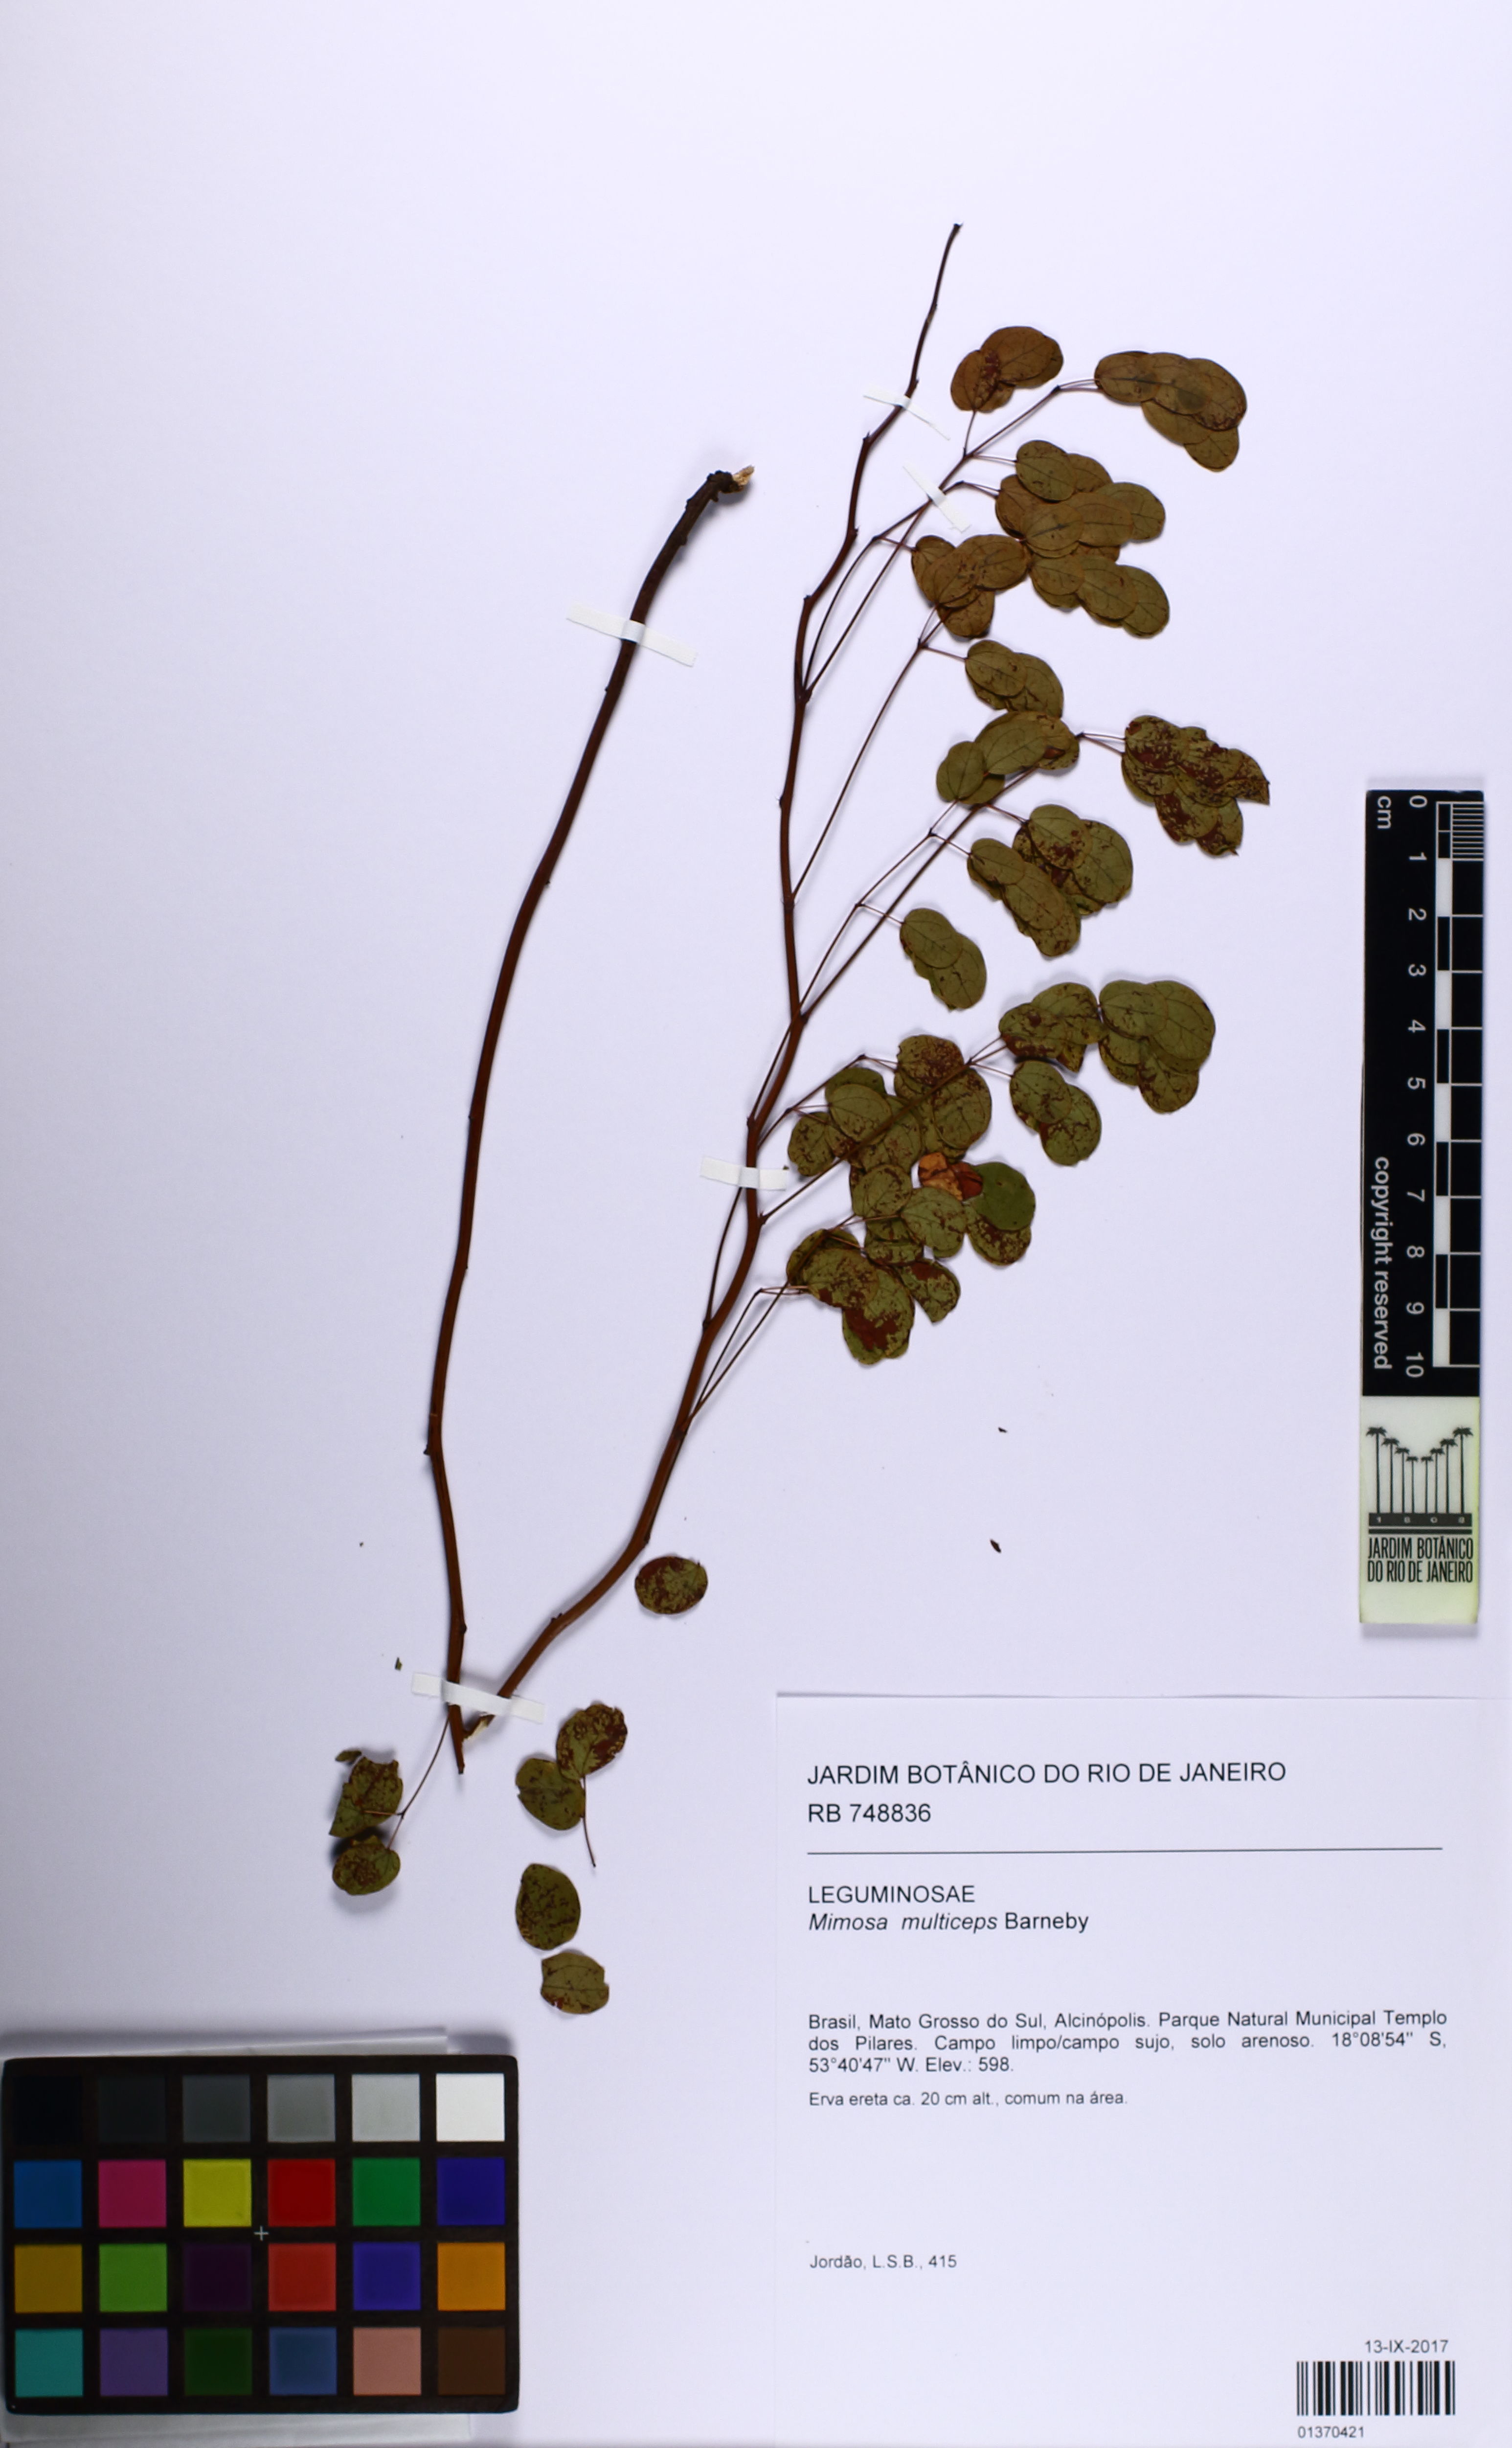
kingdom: Plantae
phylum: Tracheophyta
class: Magnoliopsida
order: Fabales
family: Fabaceae
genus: Mimosa
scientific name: Mimosa multiceps
